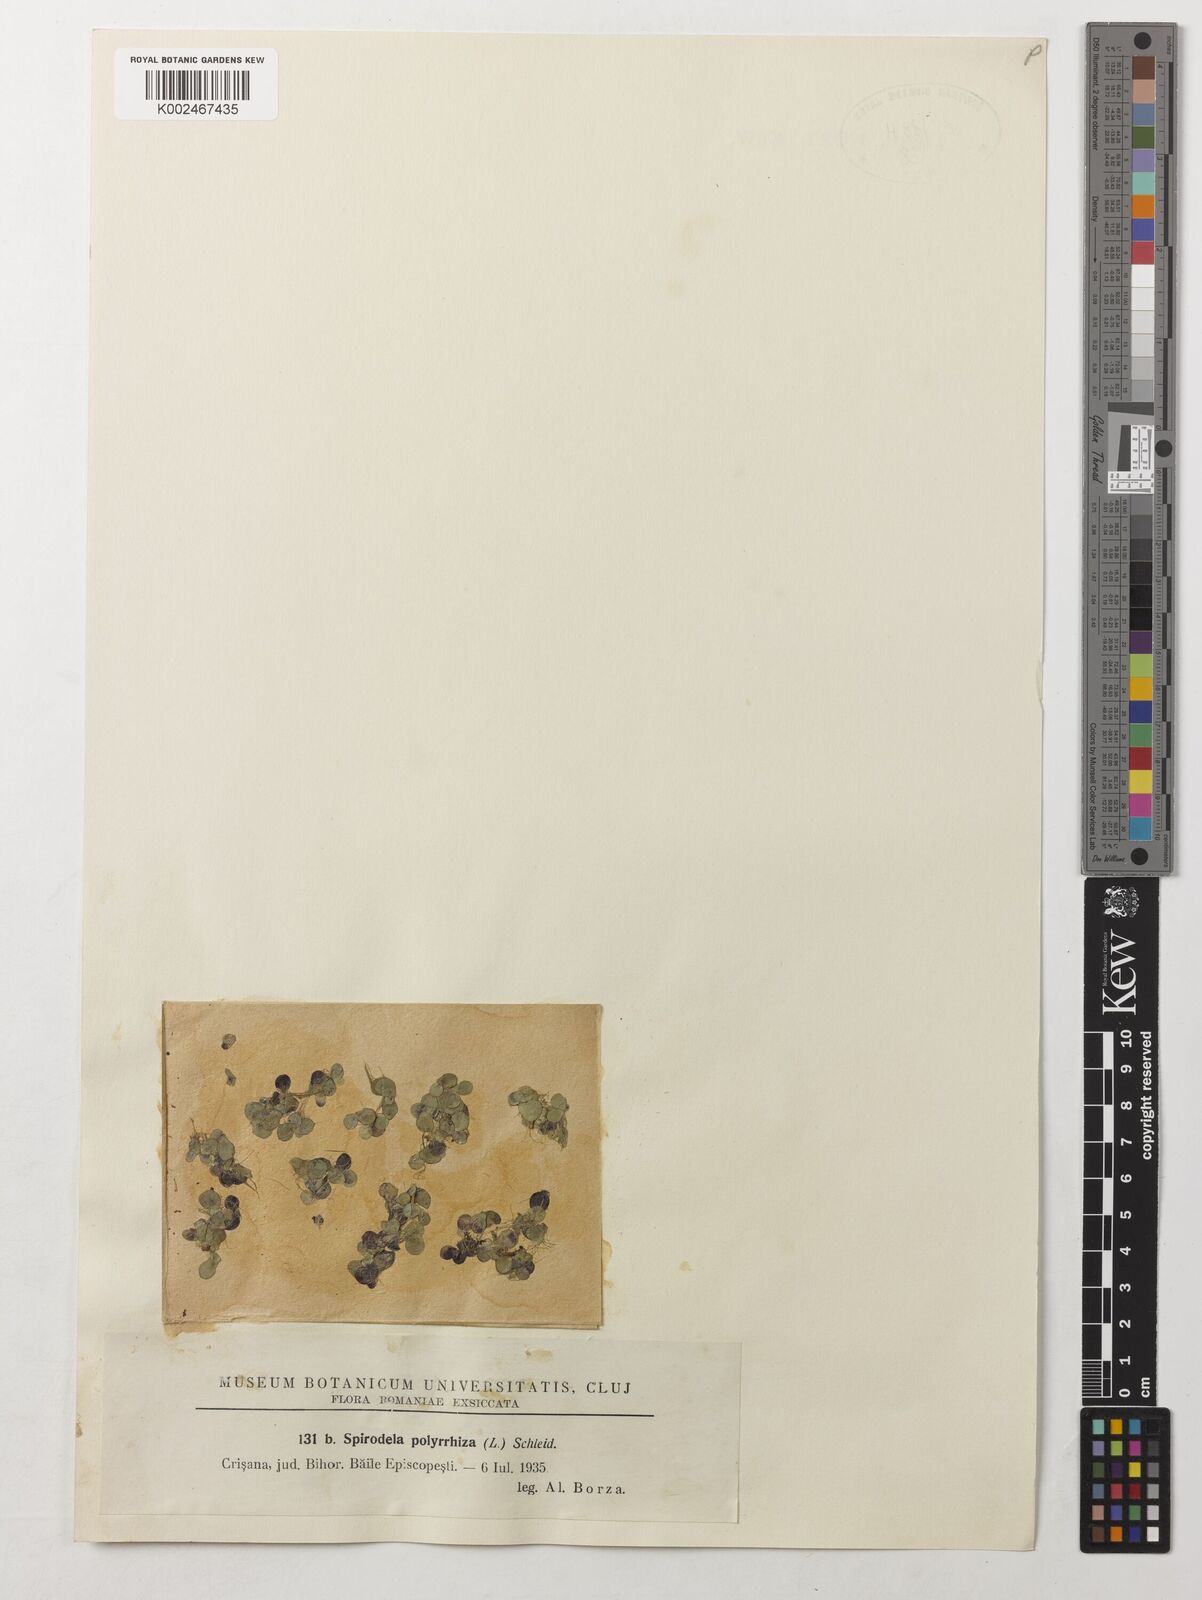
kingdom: Plantae
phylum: Tracheophyta
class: Liliopsida
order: Alismatales
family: Araceae
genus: Spirodela
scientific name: Spirodela polyrhiza
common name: Great duckweed
